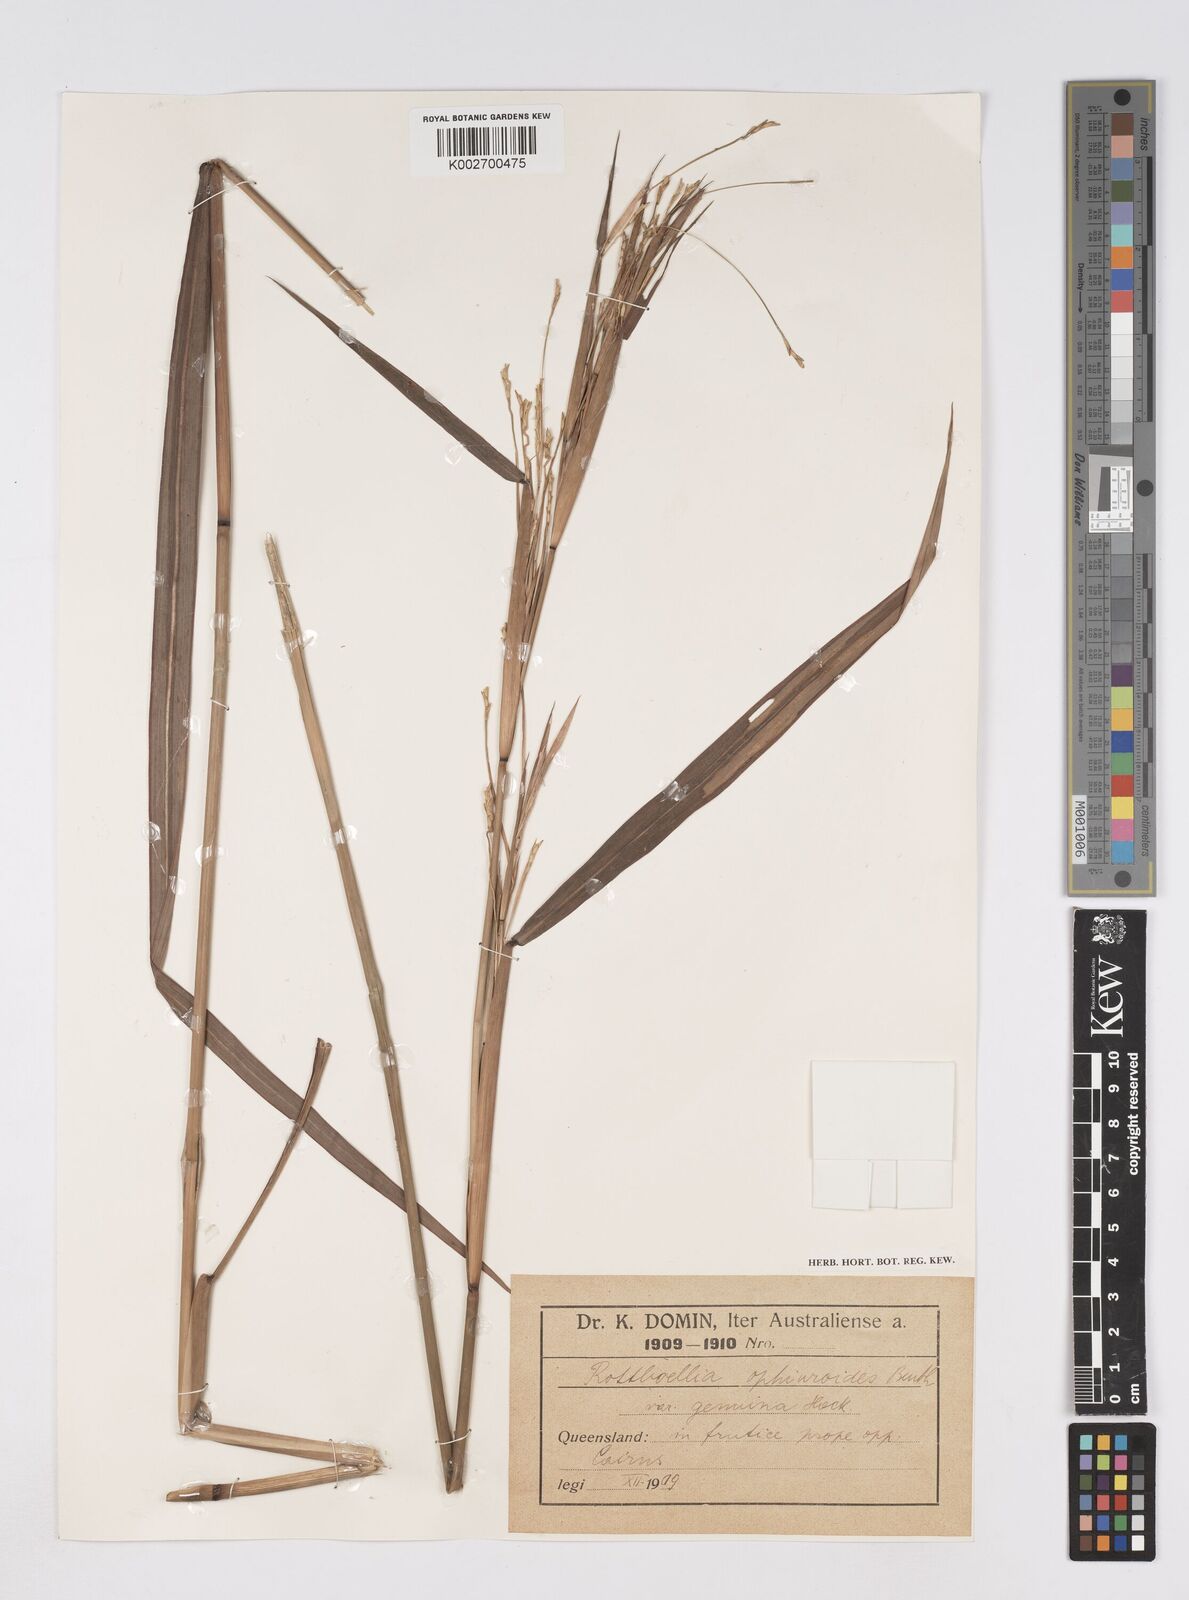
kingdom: Plantae
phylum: Tracheophyta
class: Liliopsida
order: Poales
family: Poaceae
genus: Rottboellia
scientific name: Rottboellia rottboellioides
